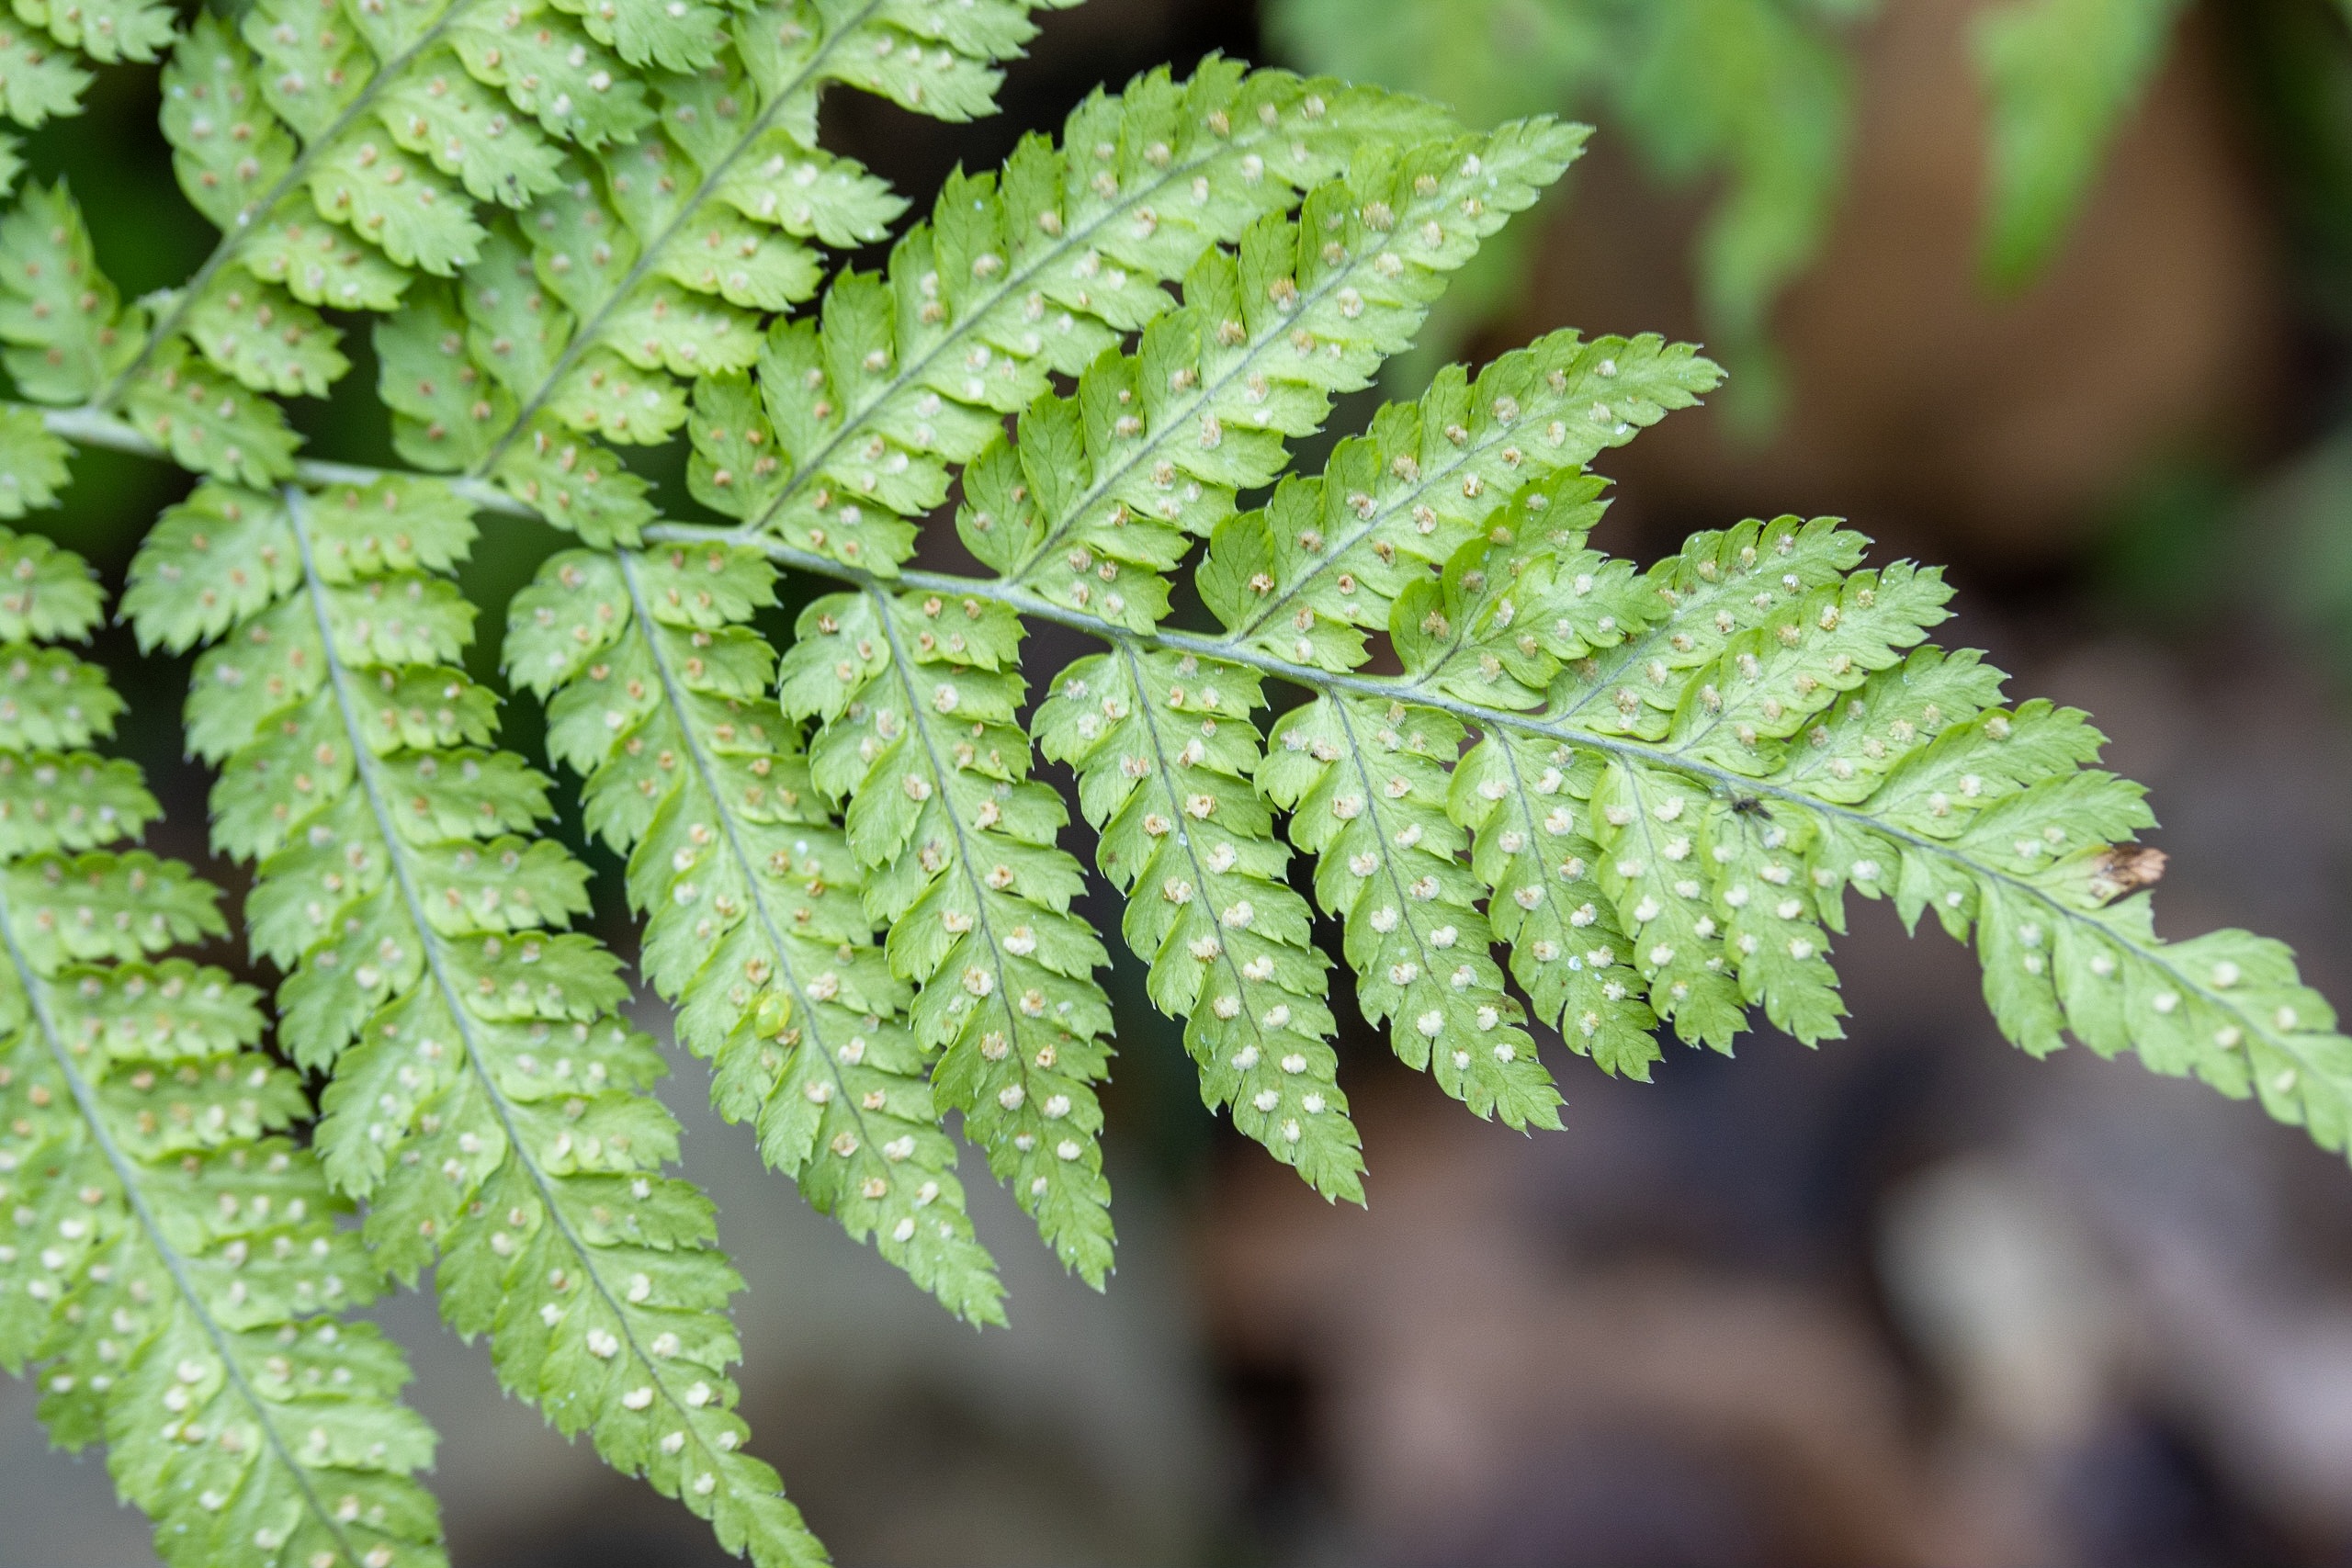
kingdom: Plantae
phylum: Tracheophyta
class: Polypodiopsida
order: Polypodiales
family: Dryopteridaceae
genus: Dryopteris
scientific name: Dryopteris carthusiana
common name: Smalbladet mangeløv
